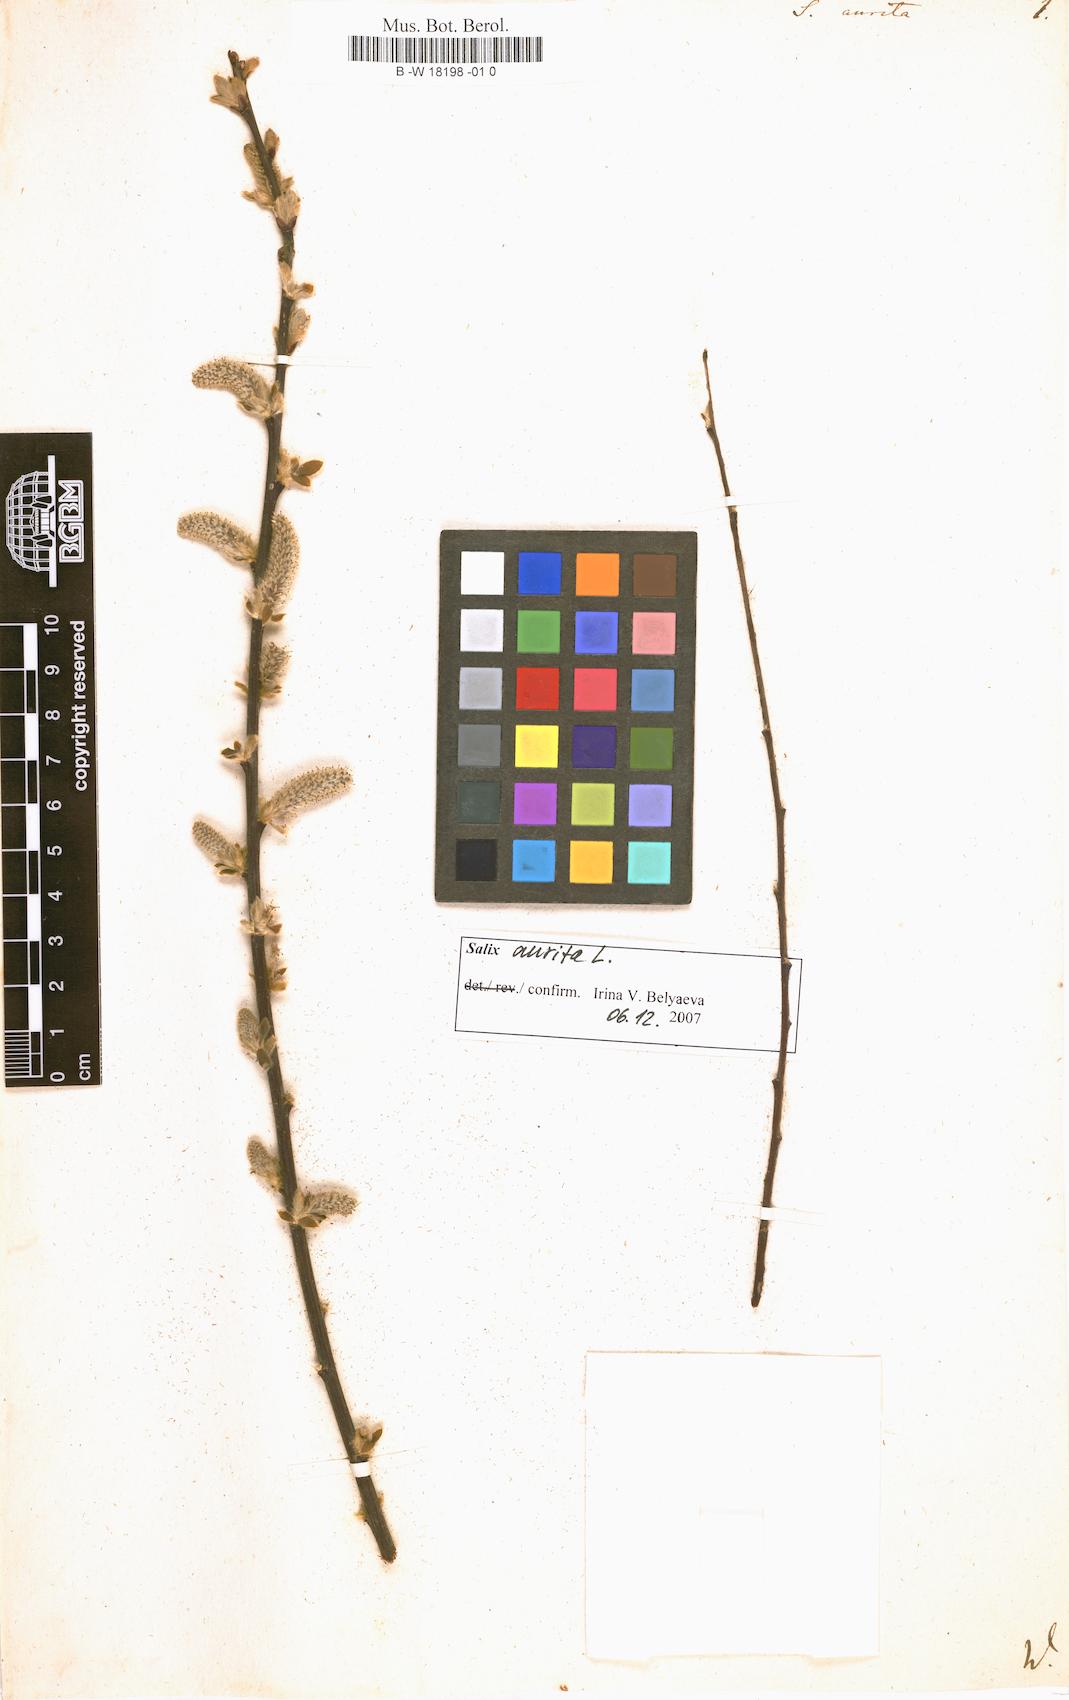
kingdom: Plantae
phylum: Tracheophyta
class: Magnoliopsida
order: Malpighiales
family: Salicaceae
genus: Salix
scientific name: Salix aurita
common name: Eared willow
